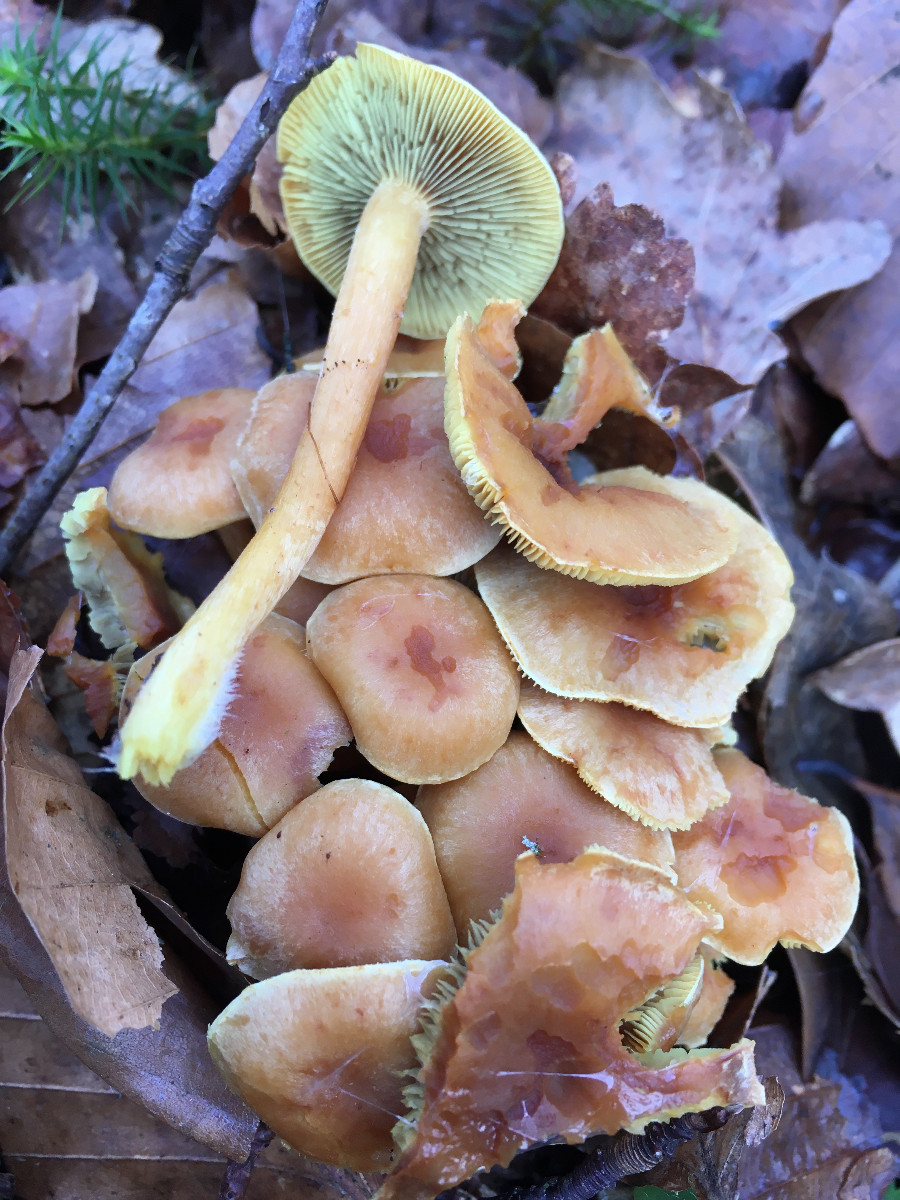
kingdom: Fungi
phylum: Basidiomycota
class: Agaricomycetes
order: Agaricales
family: Strophariaceae
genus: Hypholoma
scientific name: Hypholoma fasciculare
